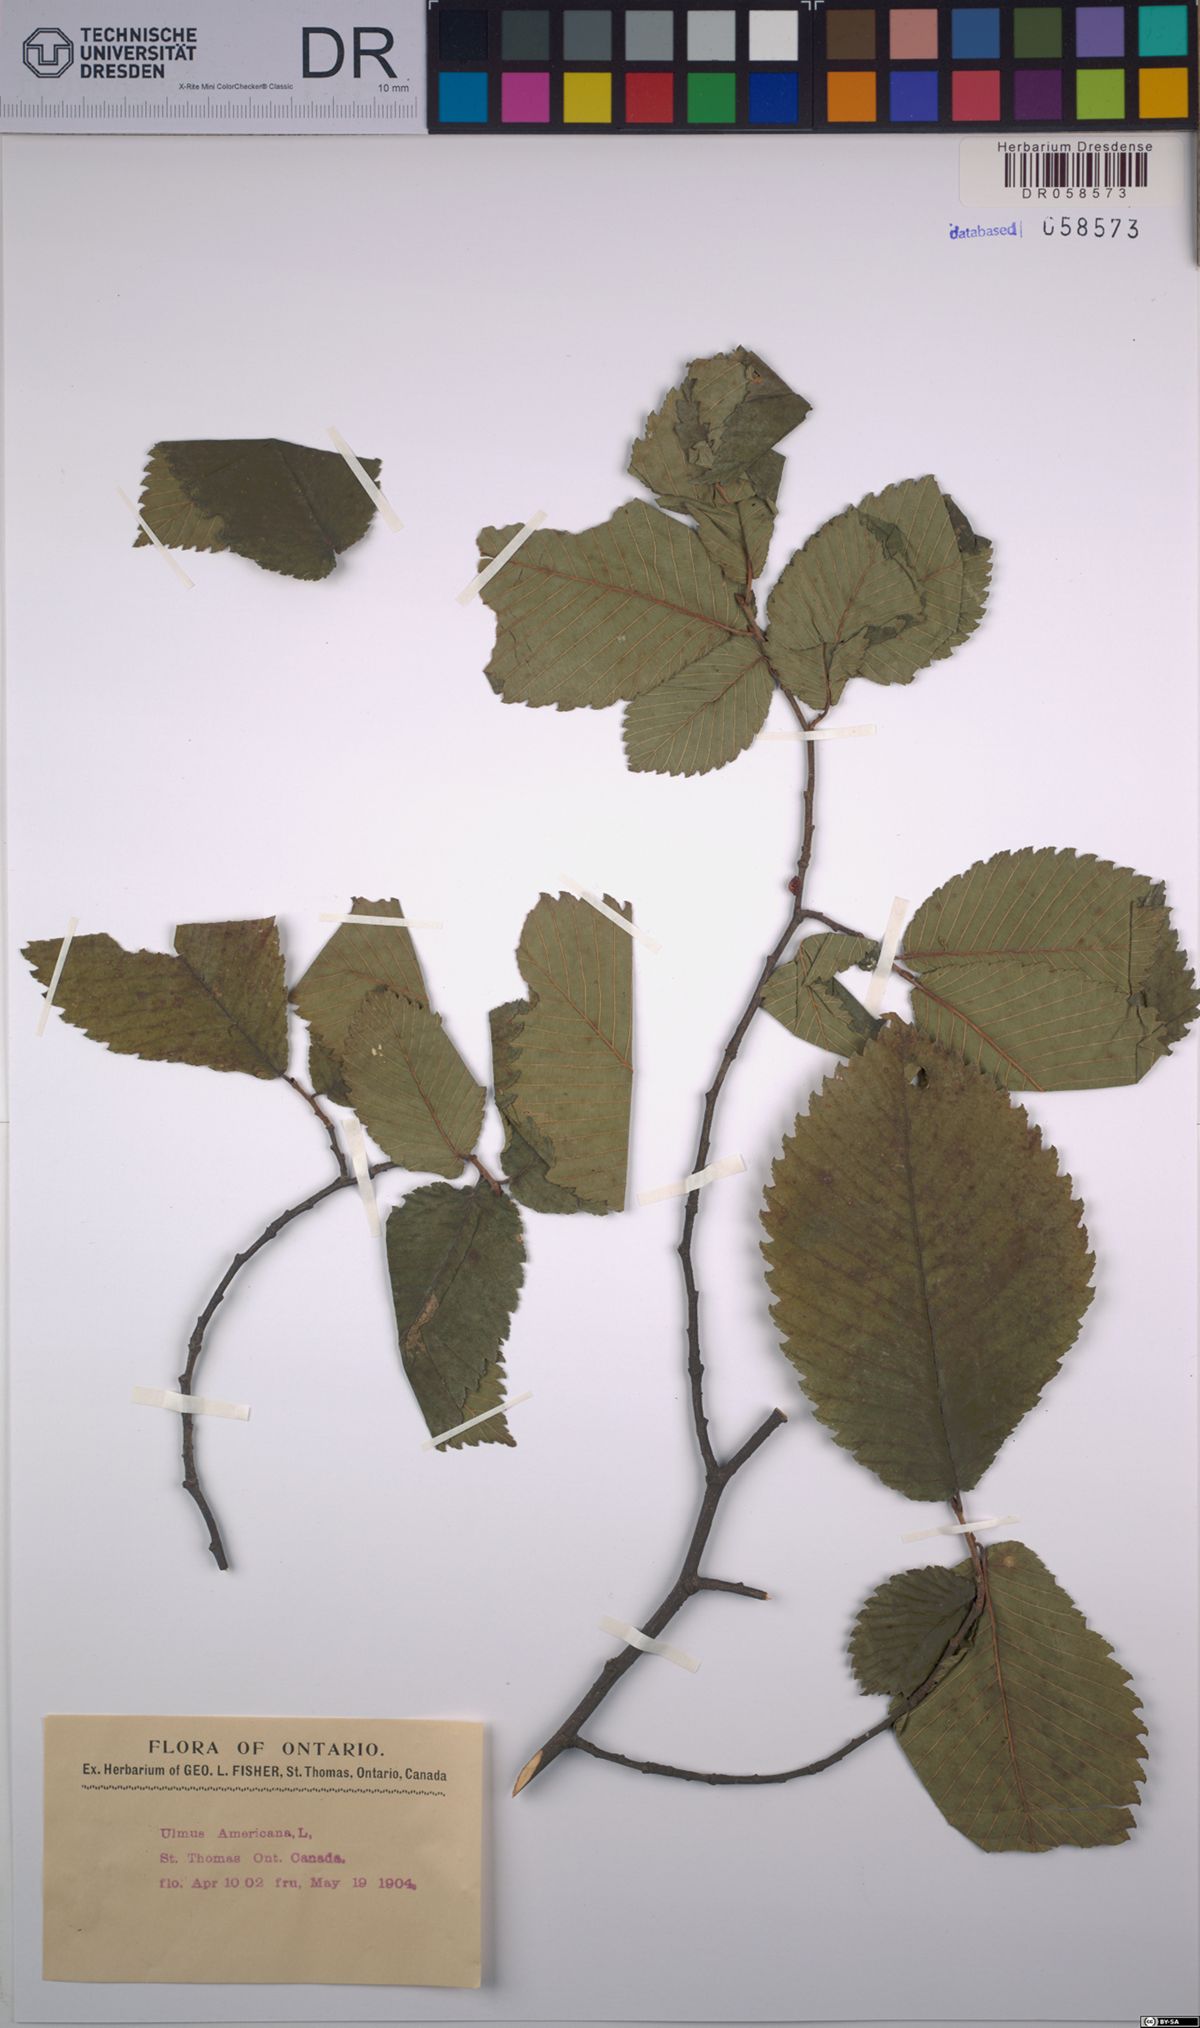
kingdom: Plantae
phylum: Tracheophyta
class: Magnoliopsida
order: Rosales
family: Ulmaceae
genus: Ulmus
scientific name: Ulmus americana
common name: American elm
